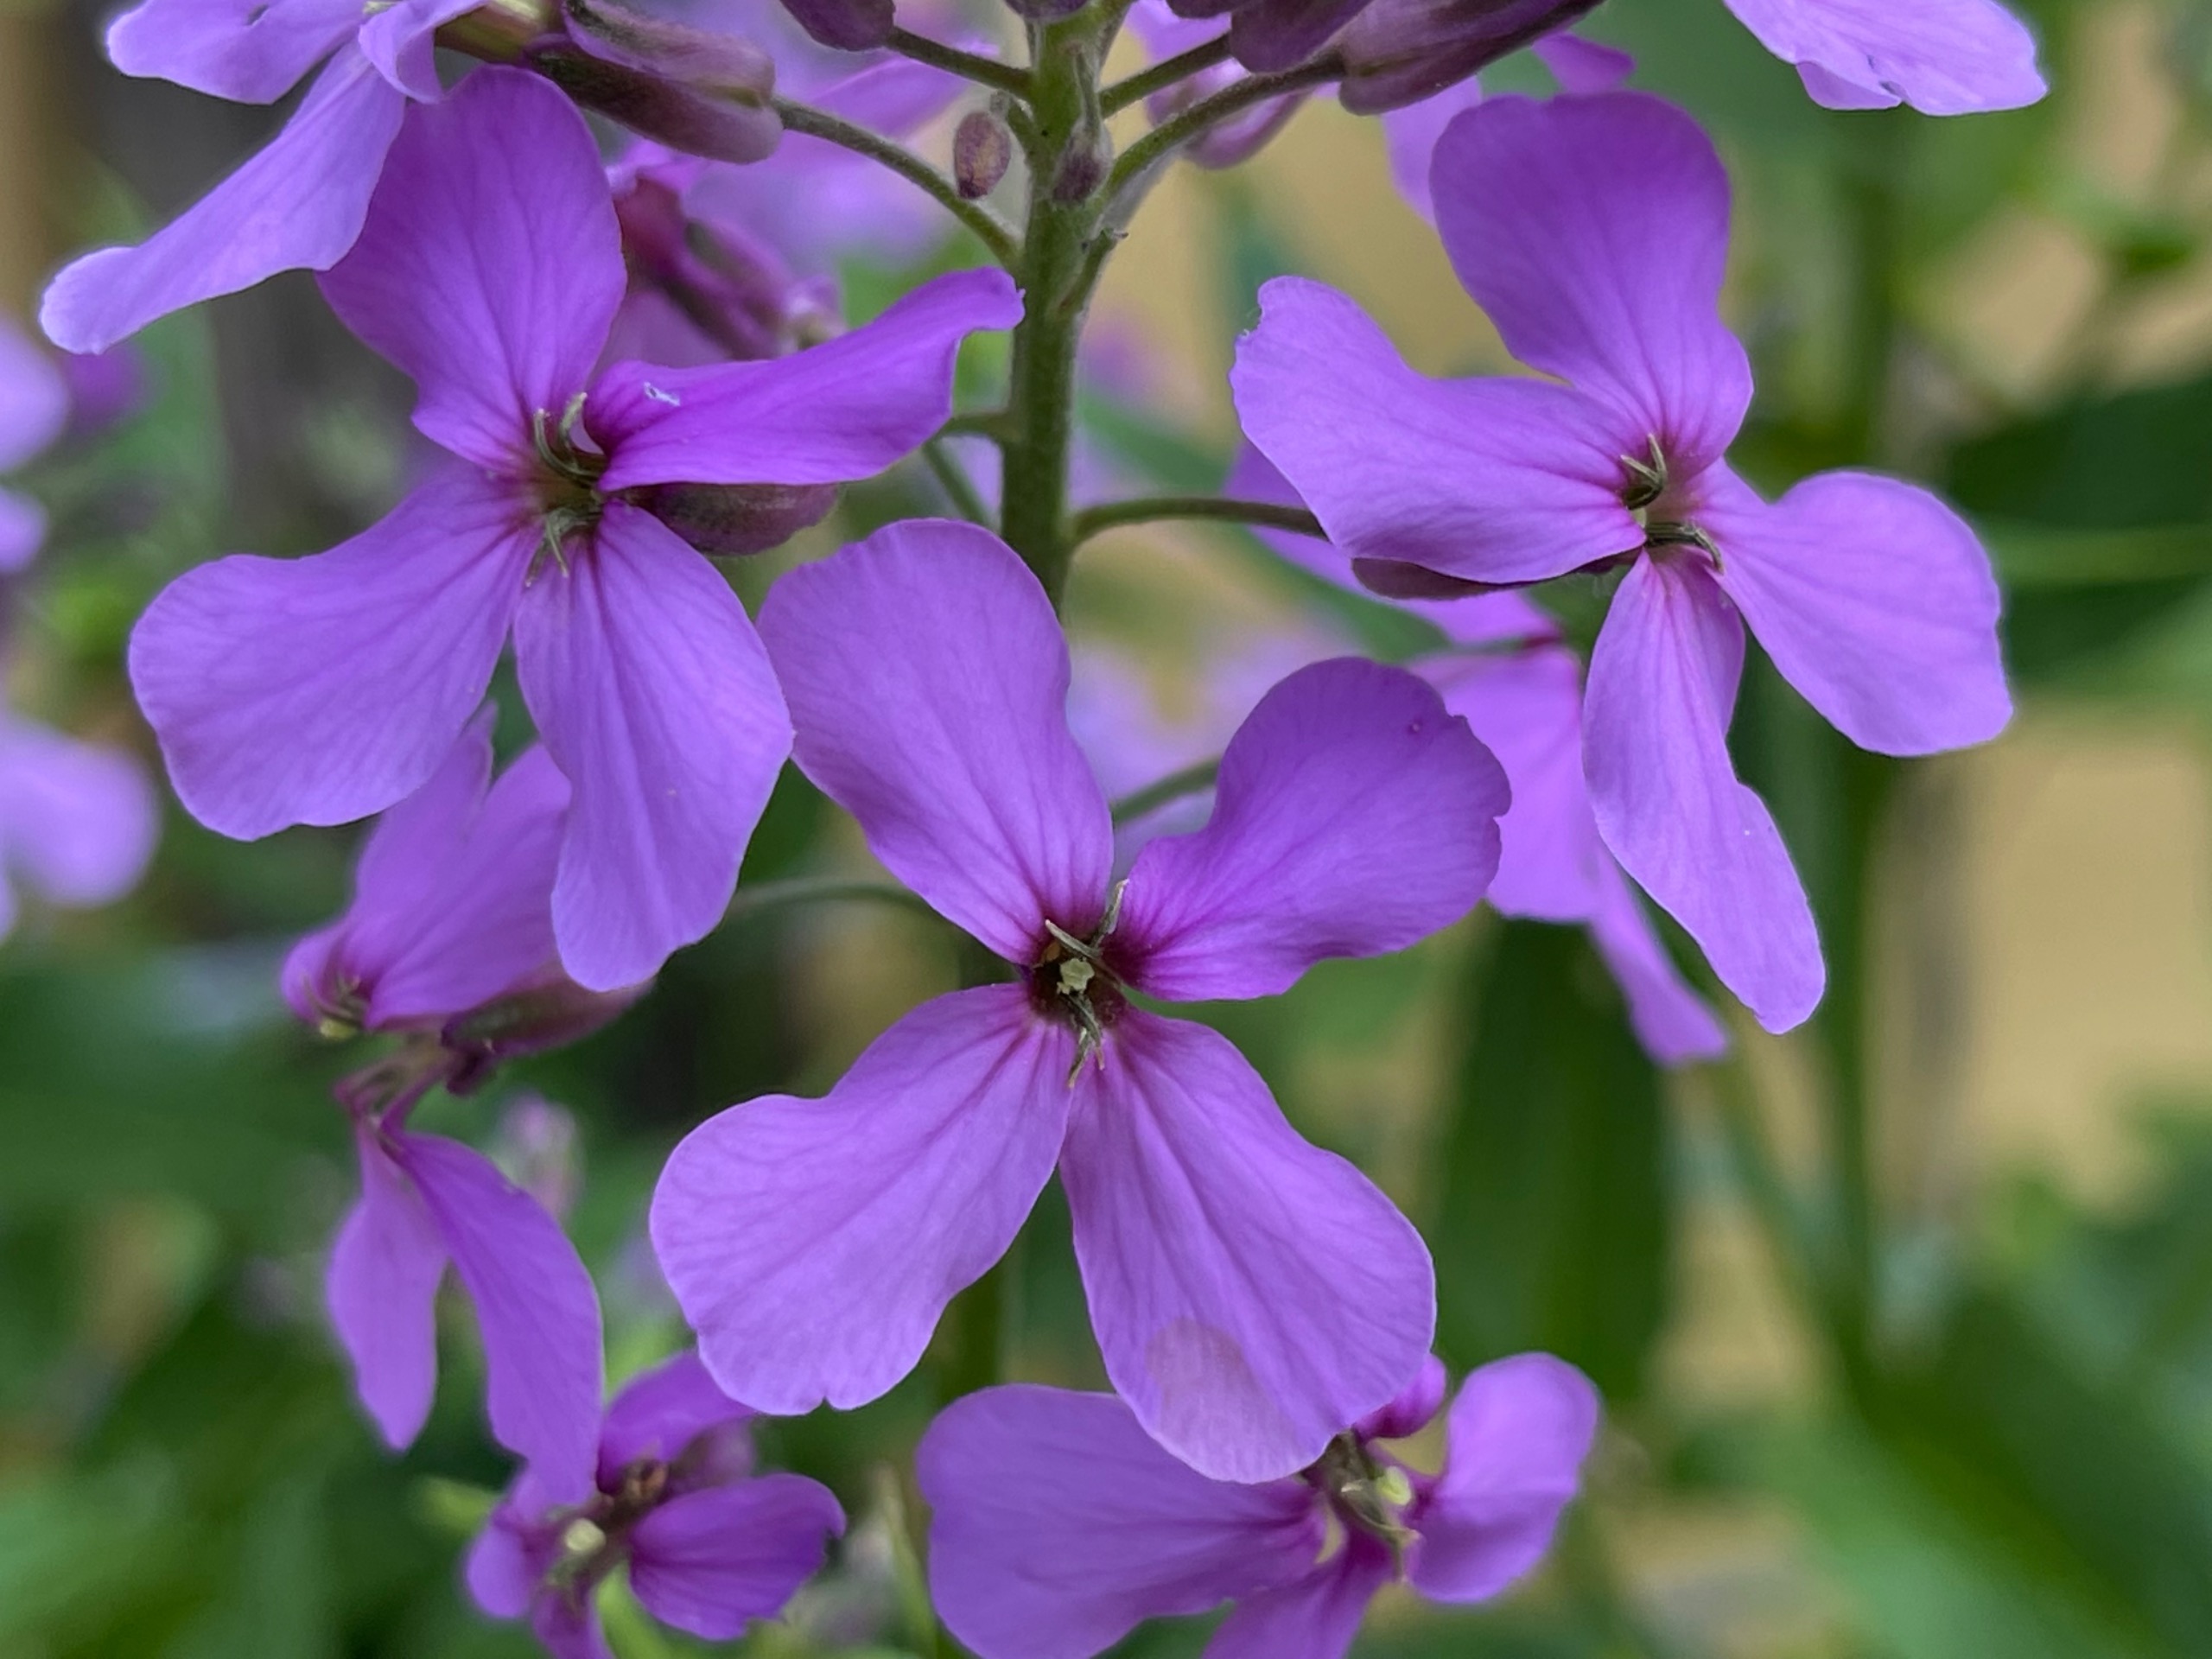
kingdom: Plantae
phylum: Tracheophyta
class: Magnoliopsida
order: Brassicales
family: Brassicaceae
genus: Hesperis
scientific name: Hesperis matronalis
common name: Aftenstjerne
